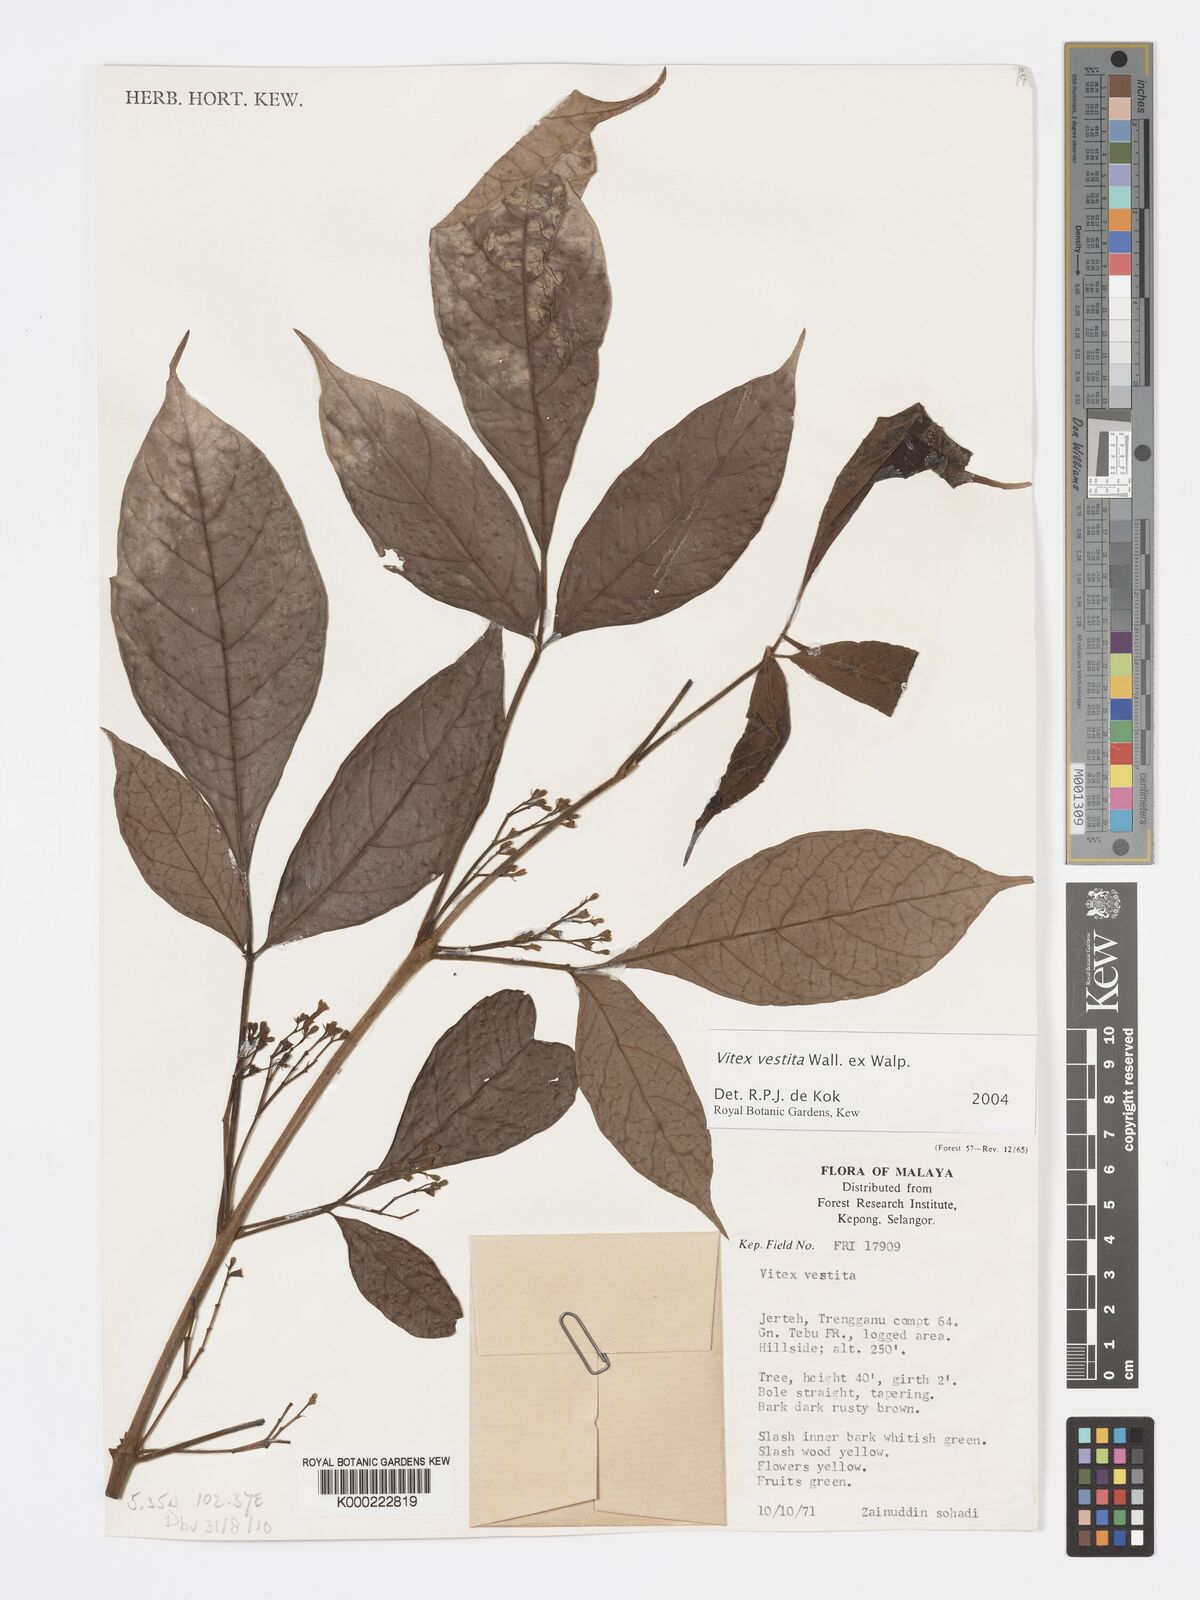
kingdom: Plantae
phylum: Tracheophyta
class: Magnoliopsida
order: Lamiales
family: Lamiaceae
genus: Vitex
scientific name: Vitex vestita
